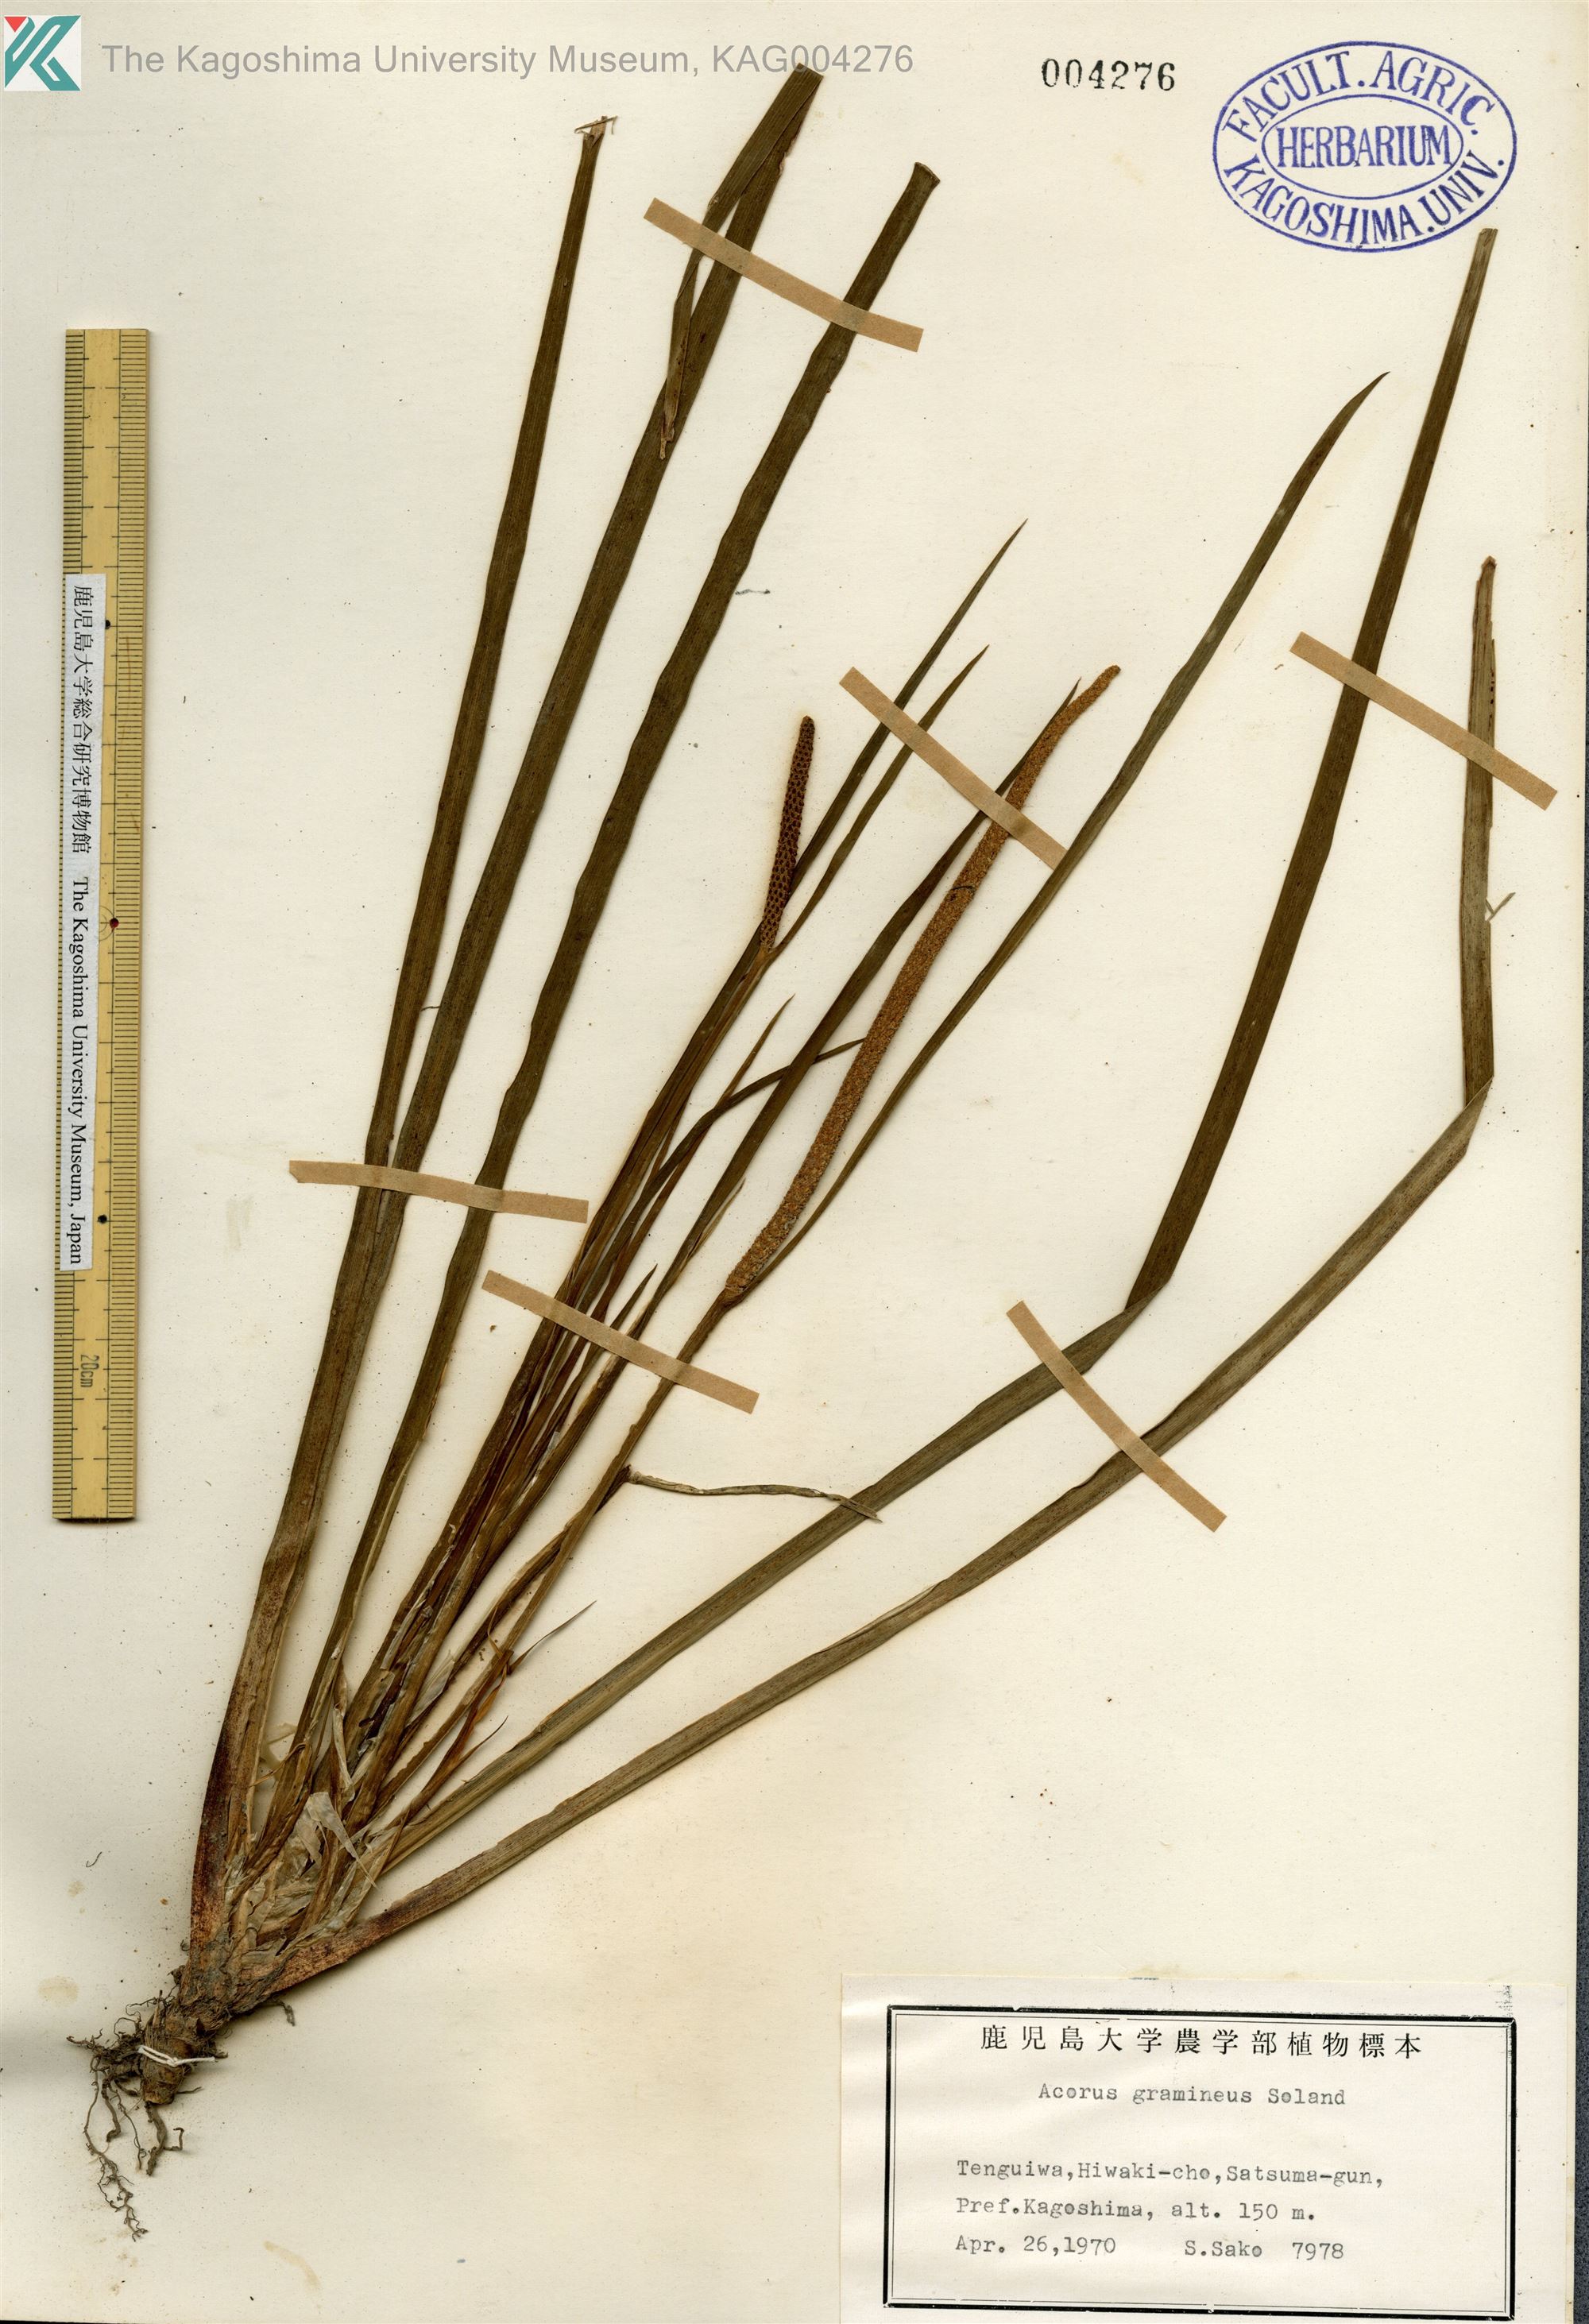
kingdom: Plantae
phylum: Tracheophyta
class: Liliopsida
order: Acorales
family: Acoraceae
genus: Acorus
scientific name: Acorus gramineus
